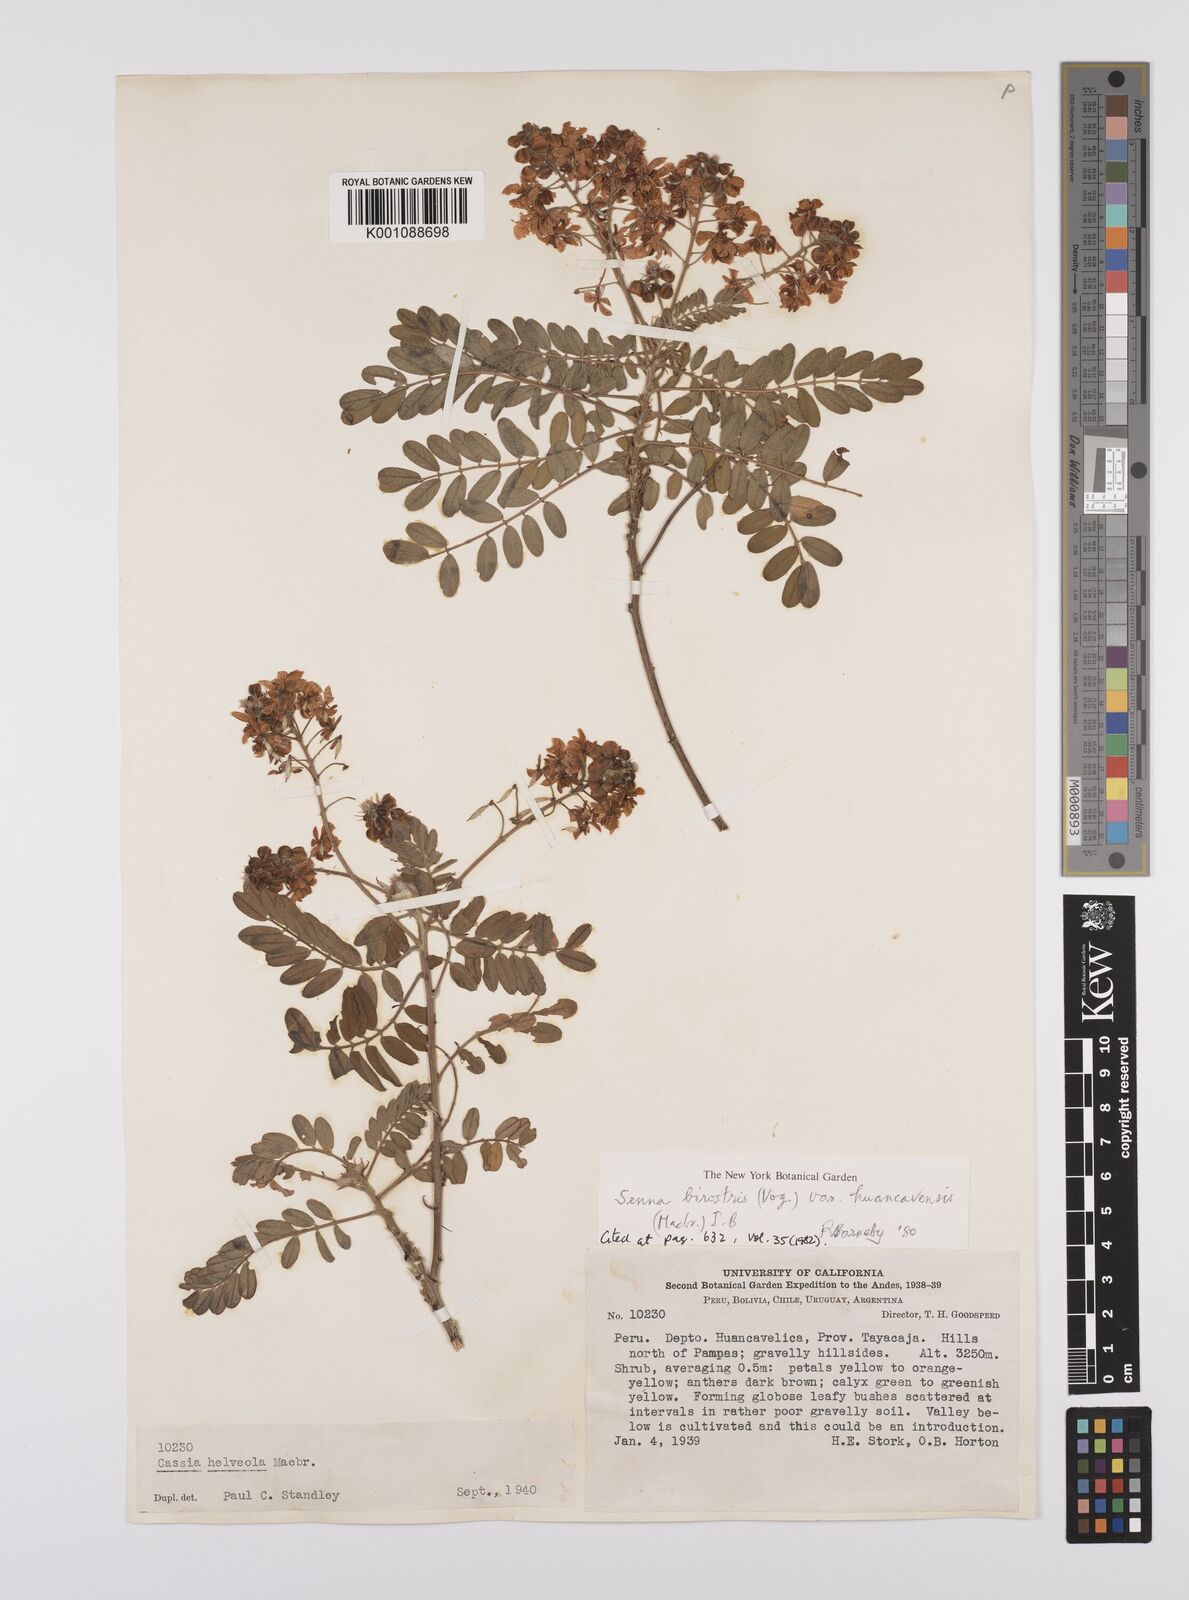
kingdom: Plantae
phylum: Tracheophyta
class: Magnoliopsida
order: Fabales
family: Fabaceae
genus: Senna
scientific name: Senna birostris
